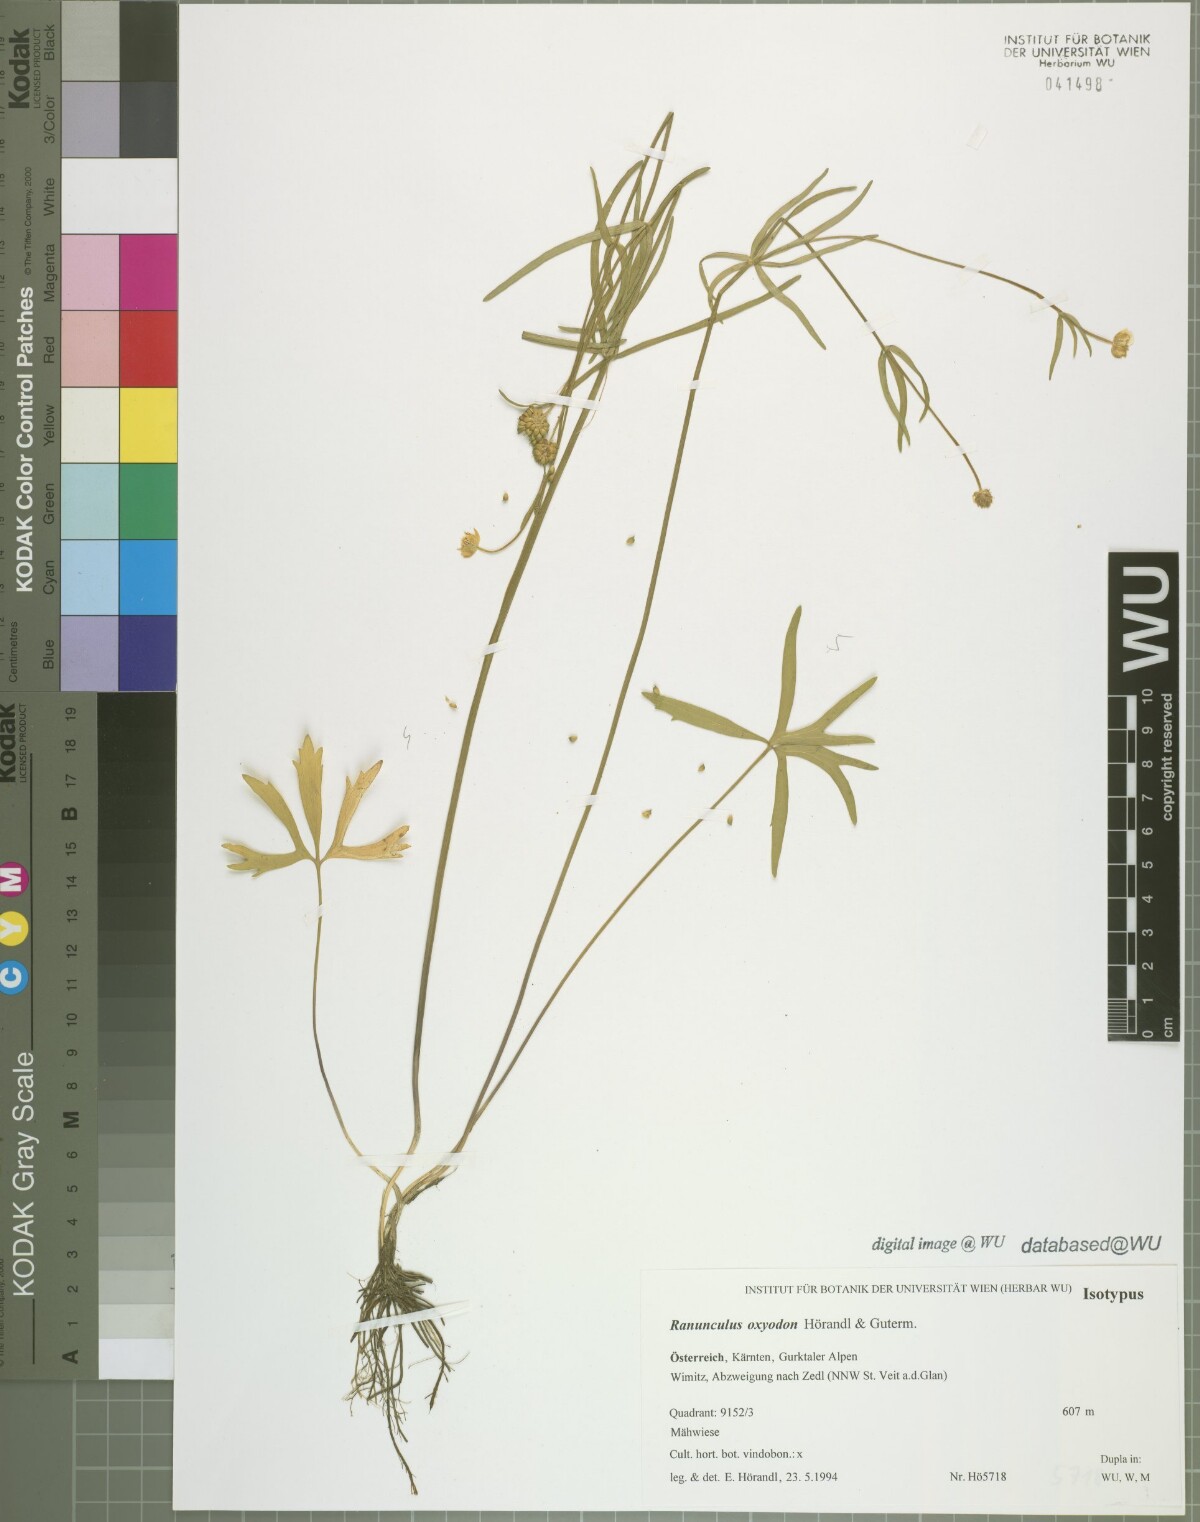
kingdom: Plantae
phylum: Tracheophyta
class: Magnoliopsida
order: Ranunculales
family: Ranunculaceae
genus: Ranunculus
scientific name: Ranunculus oxyodon
